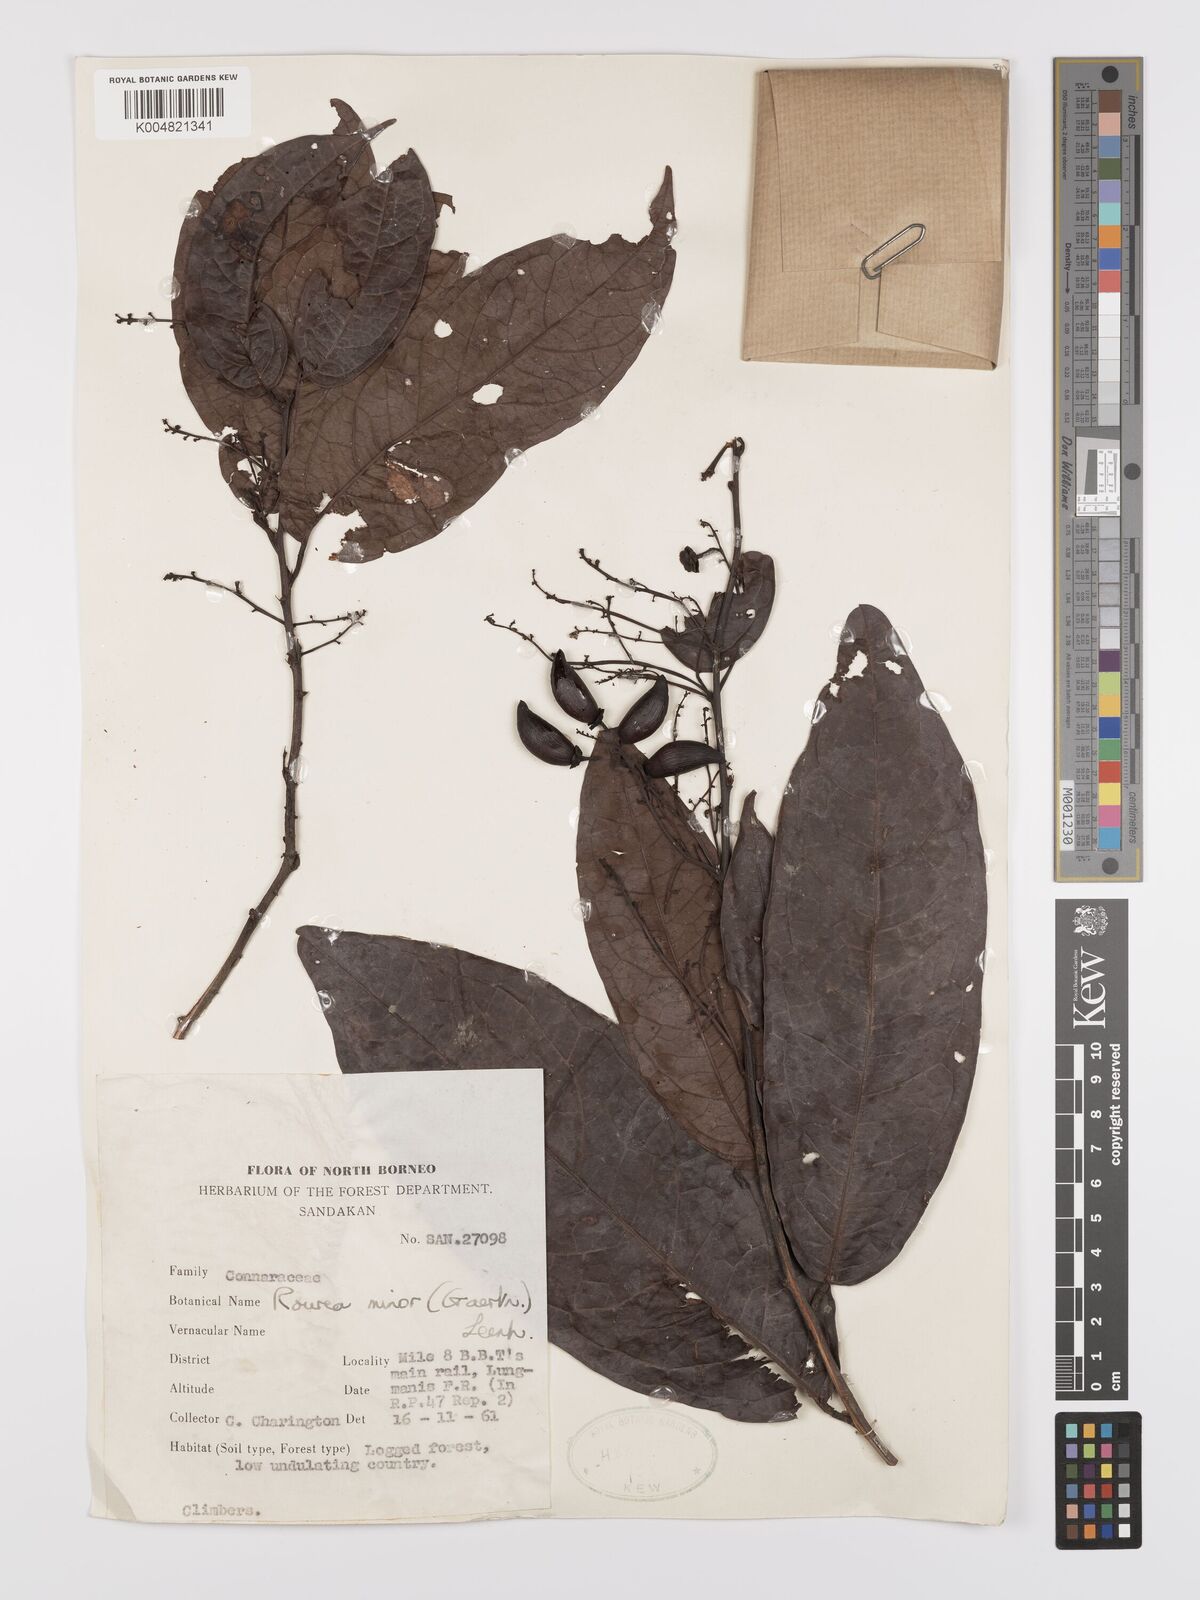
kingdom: Plantae
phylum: Tracheophyta
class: Magnoliopsida
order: Oxalidales
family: Connaraceae
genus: Rourea
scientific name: Rourea minor
